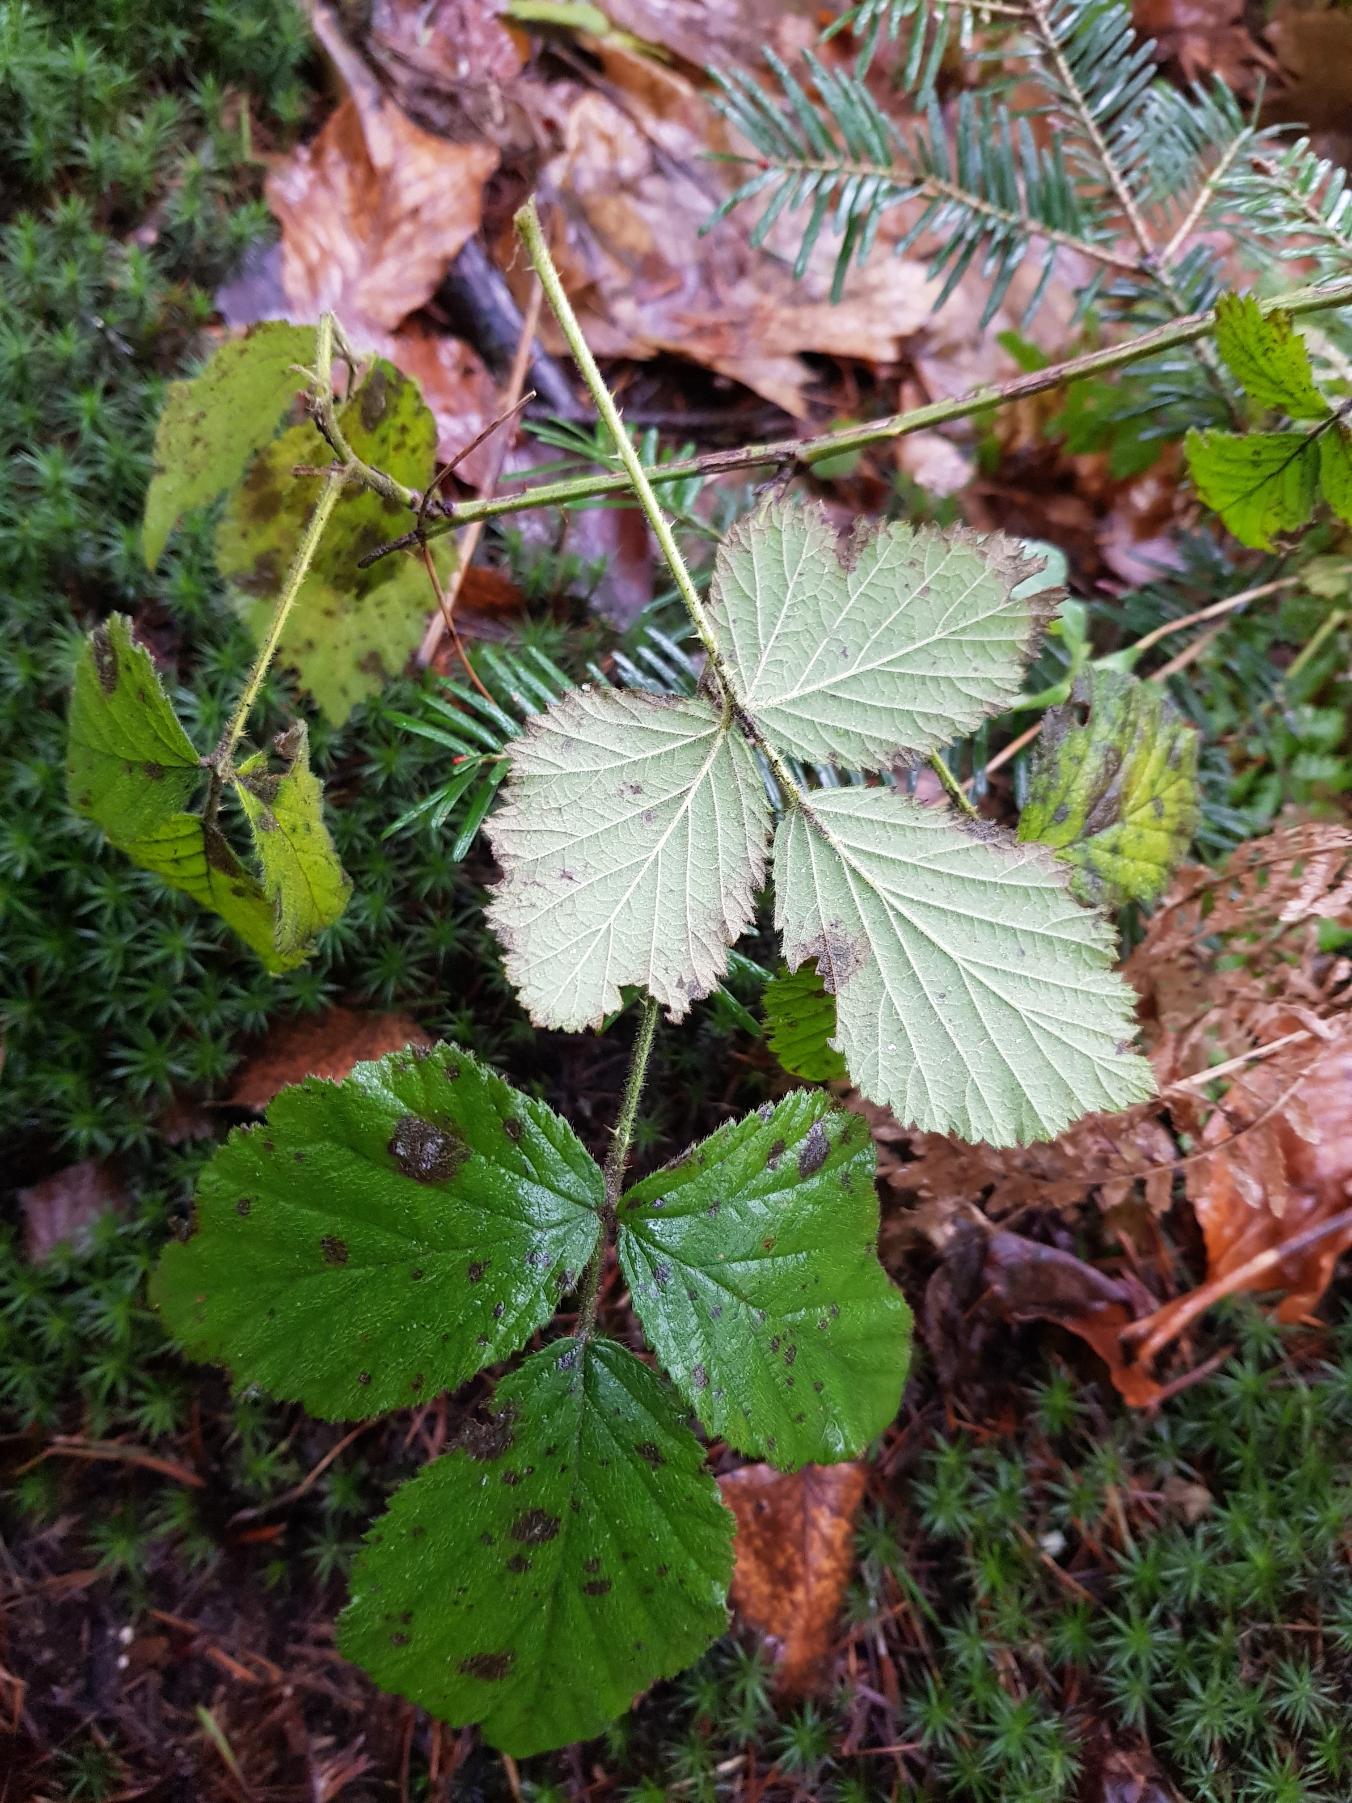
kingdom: Plantae
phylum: Tracheophyta
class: Magnoliopsida
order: Rosales
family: Rosaceae
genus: Rubus
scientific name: Rubus fasciculatus
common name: Gråbladet hasselbrombær
